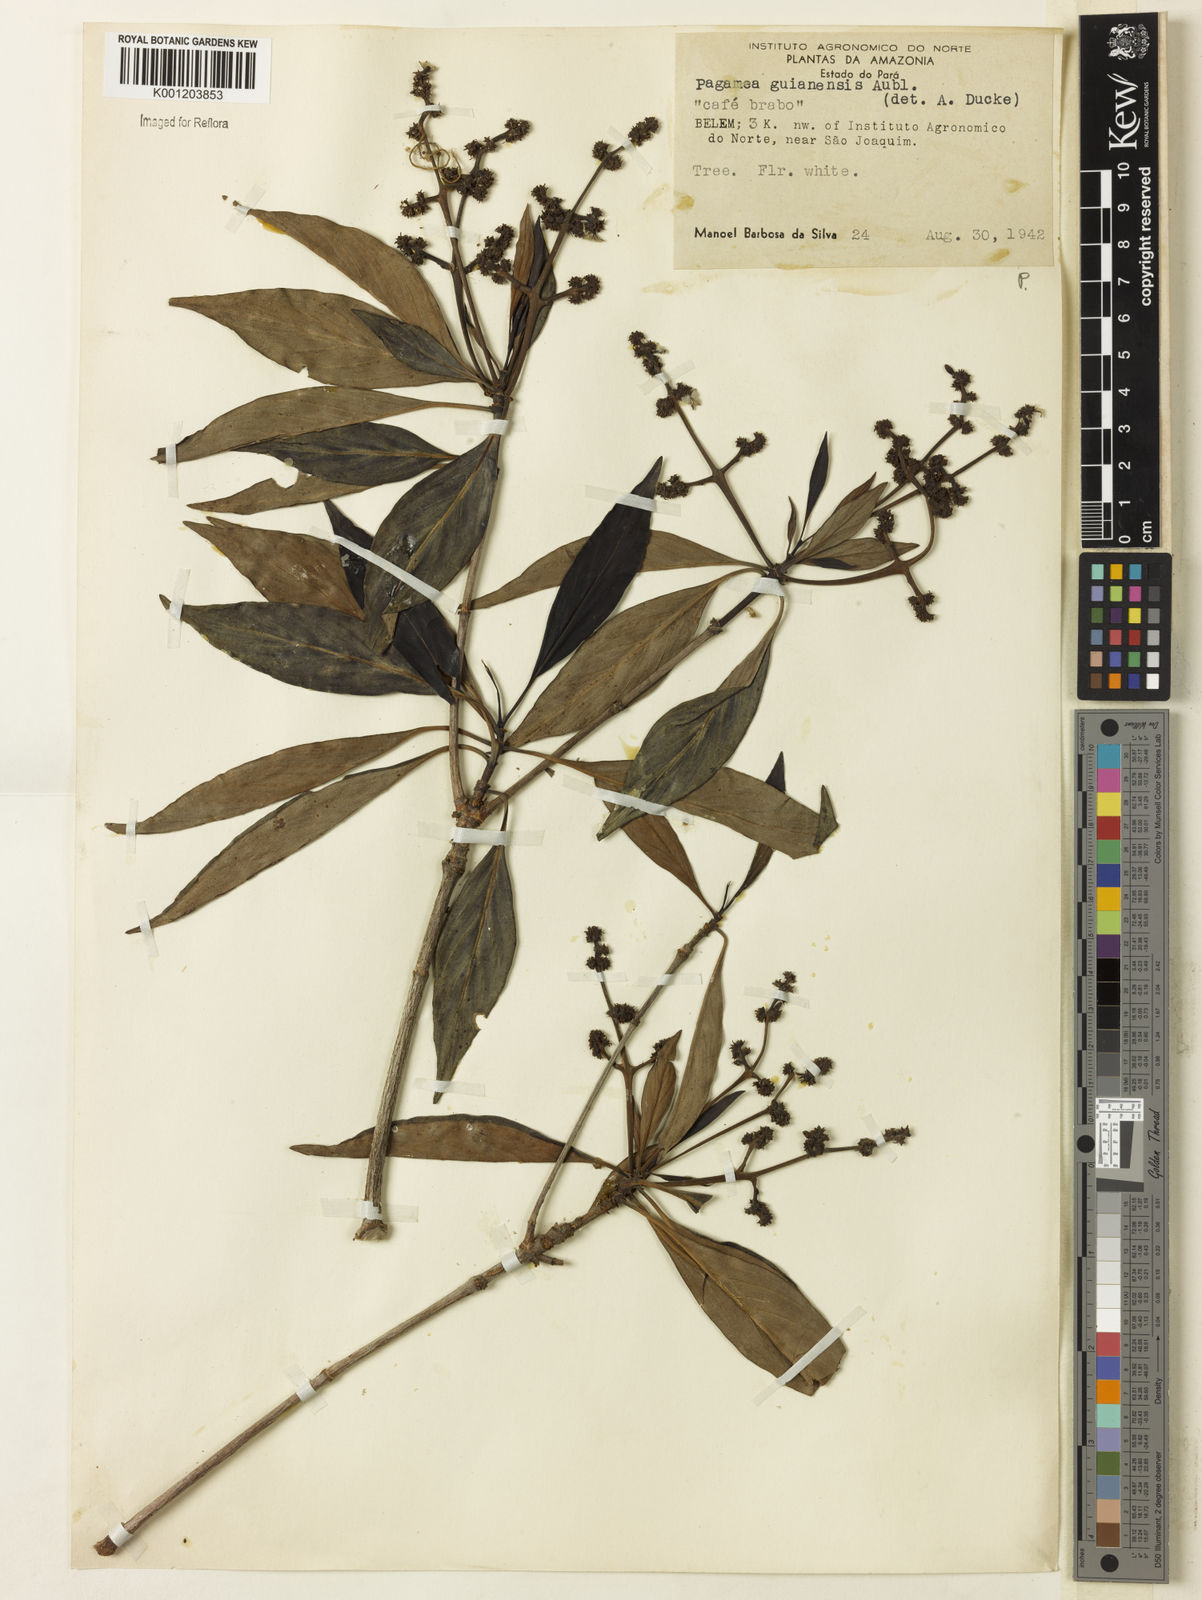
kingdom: Plantae
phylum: Tracheophyta
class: Magnoliopsida
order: Gentianales
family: Rubiaceae
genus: Pagamea
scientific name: Pagamea guianensis
